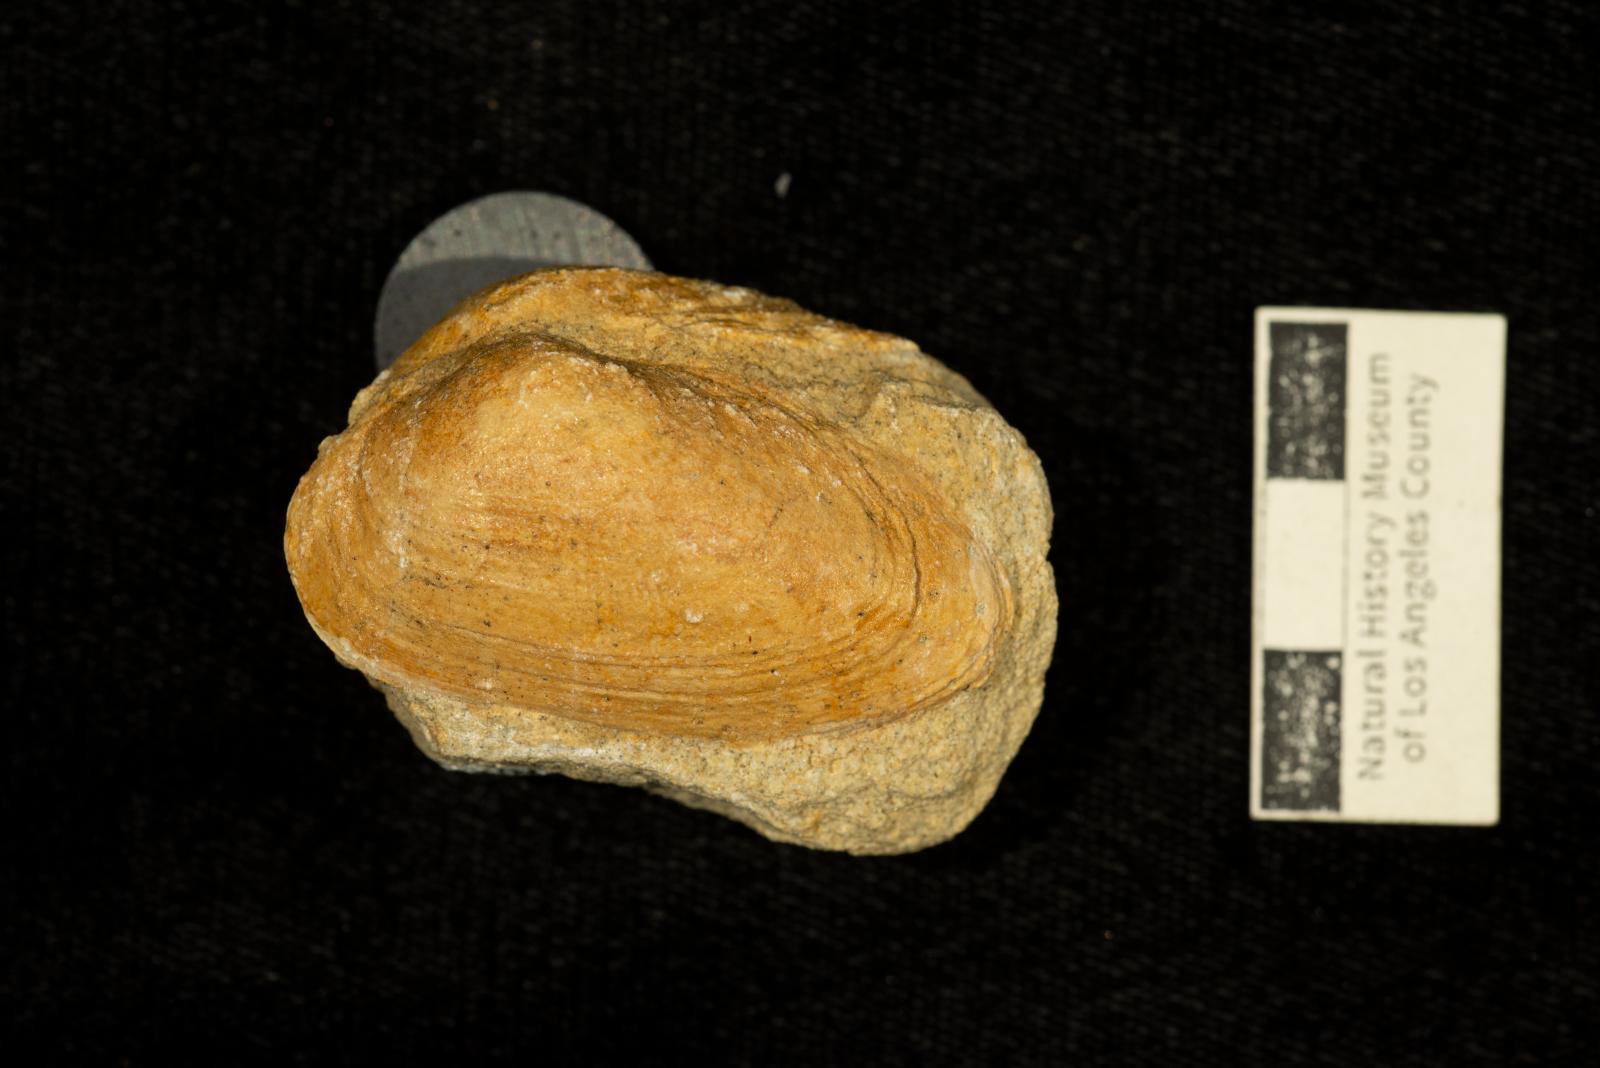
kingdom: Animalia
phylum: Mollusca
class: Bivalvia
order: Arcida
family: Cucullaeidae
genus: Cucullaea
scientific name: Cucullaea
